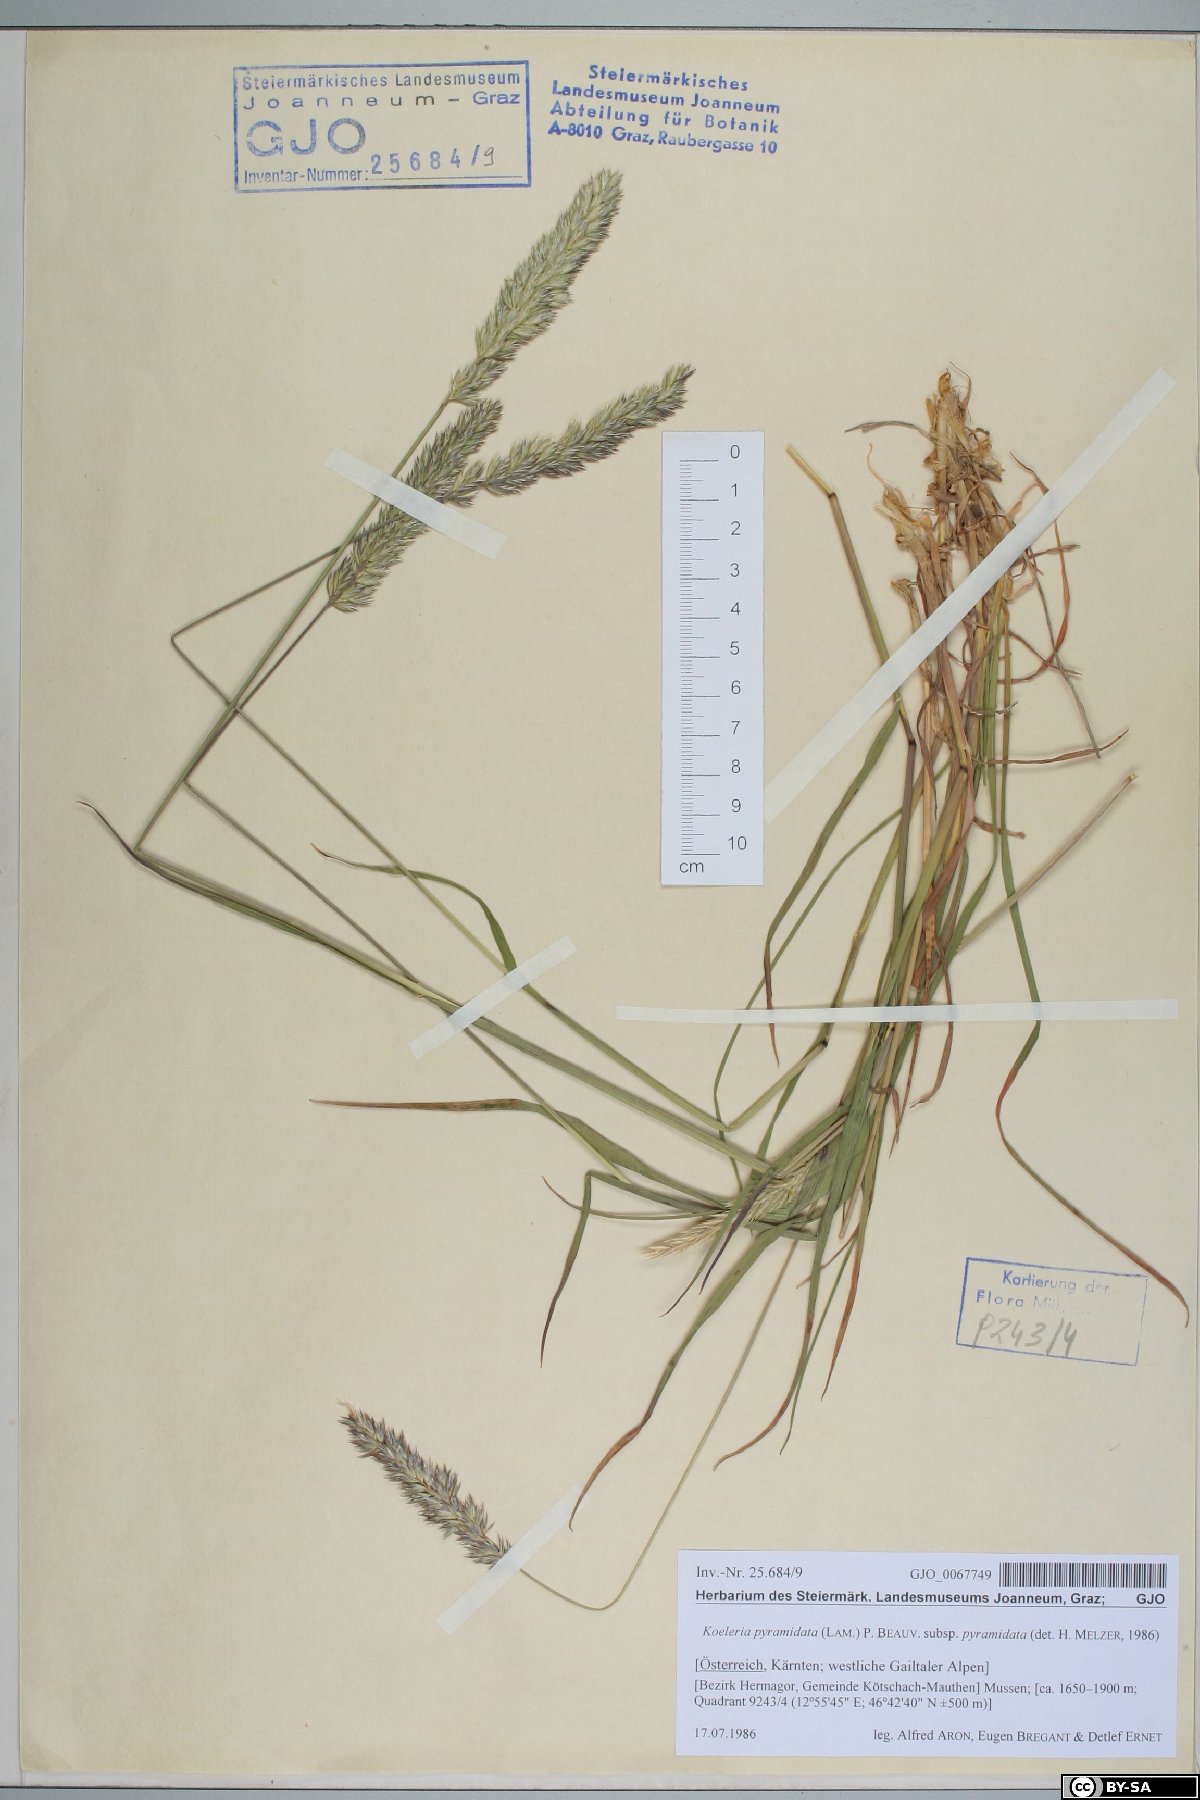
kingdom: Plantae
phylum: Tracheophyta
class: Liliopsida
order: Poales
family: Poaceae
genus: Koeleria
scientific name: Koeleria pyramidata
